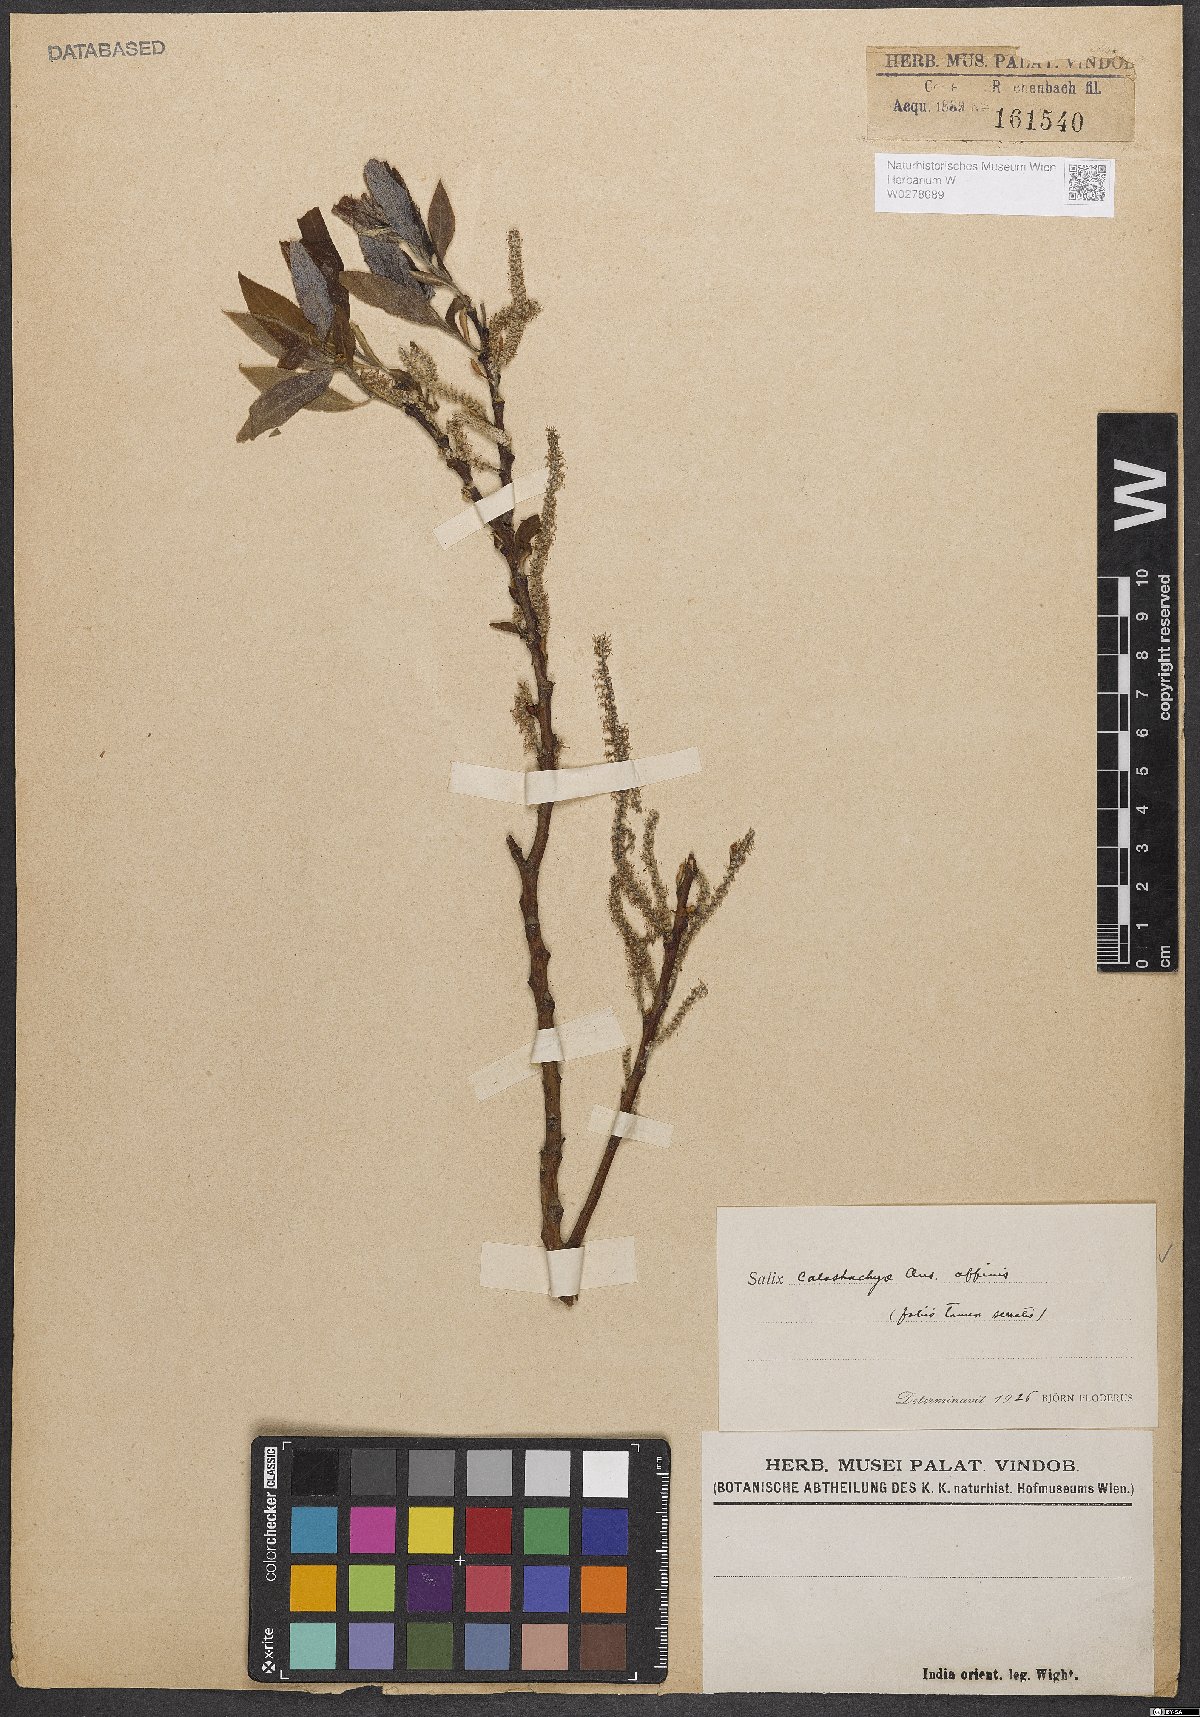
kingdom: Plantae
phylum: Tracheophyta
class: Magnoliopsida
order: Malpighiales
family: Salicaceae
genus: Salix
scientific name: Salix calostachya
